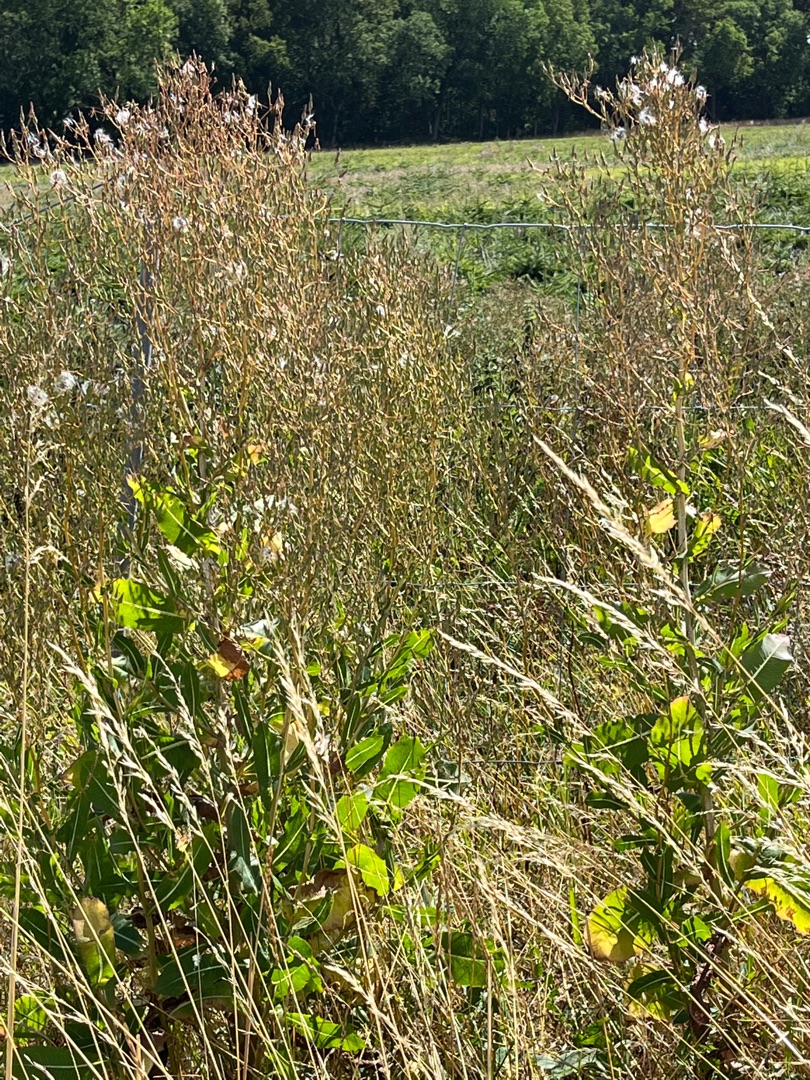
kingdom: Plantae
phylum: Tracheophyta
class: Magnoliopsida
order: Asterales
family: Asteraceae
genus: Lactuca
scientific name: Lactuca serriola
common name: Tornet salat
